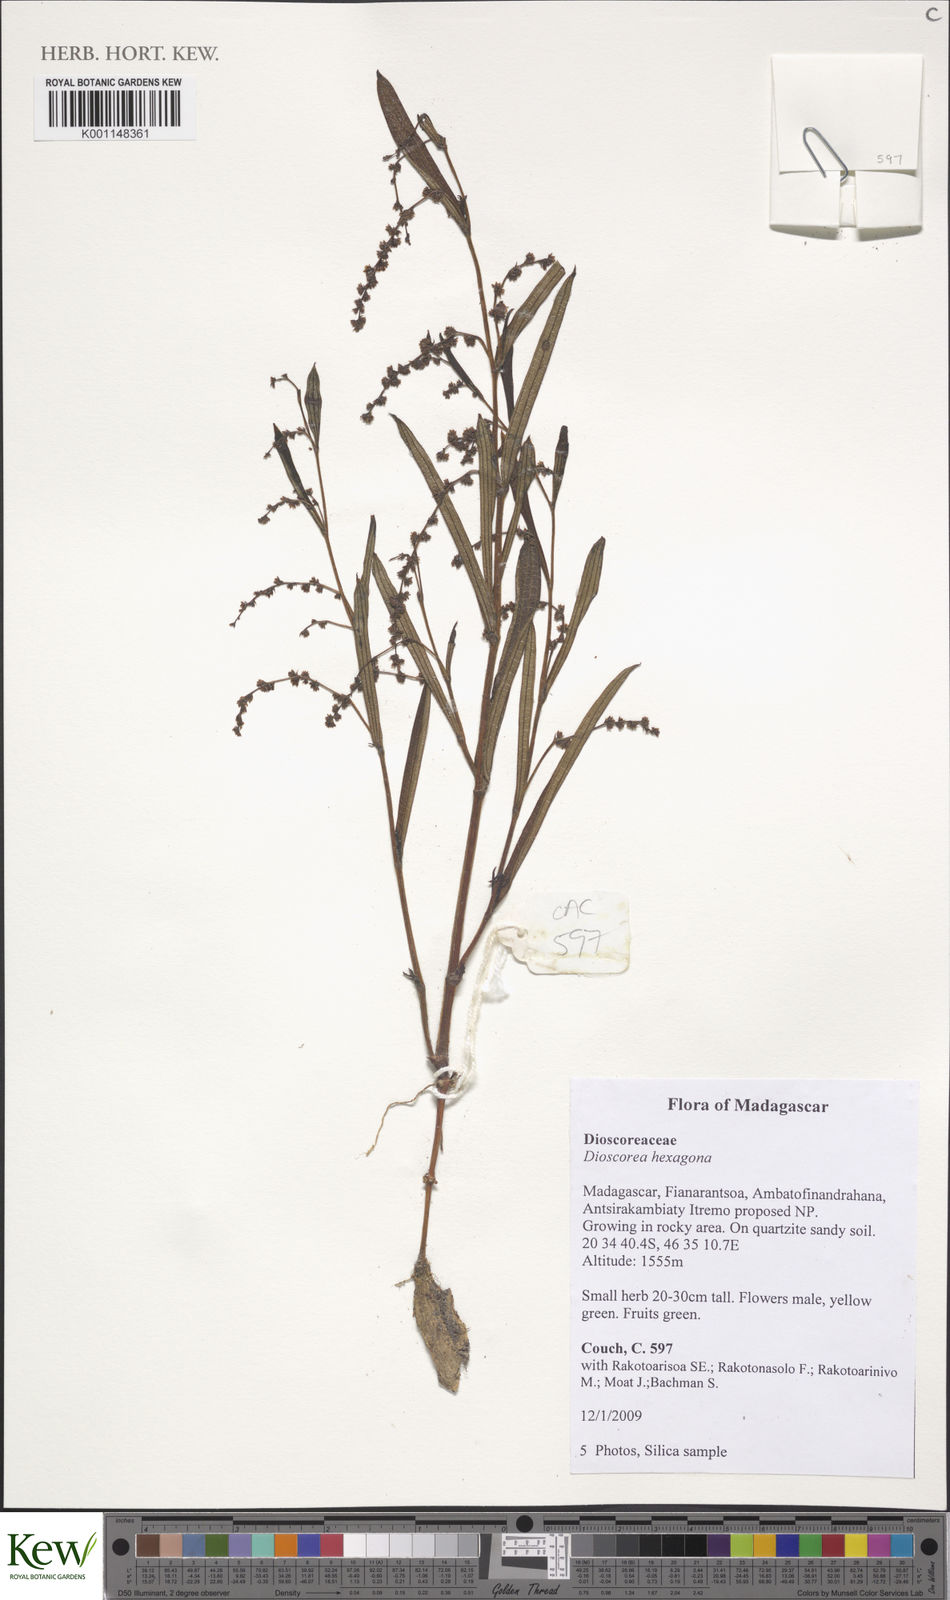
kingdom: Plantae
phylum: Tracheophyta
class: Liliopsida
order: Dioscoreales
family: Dioscoreaceae
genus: Dioscorea
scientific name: Dioscorea hexagona
